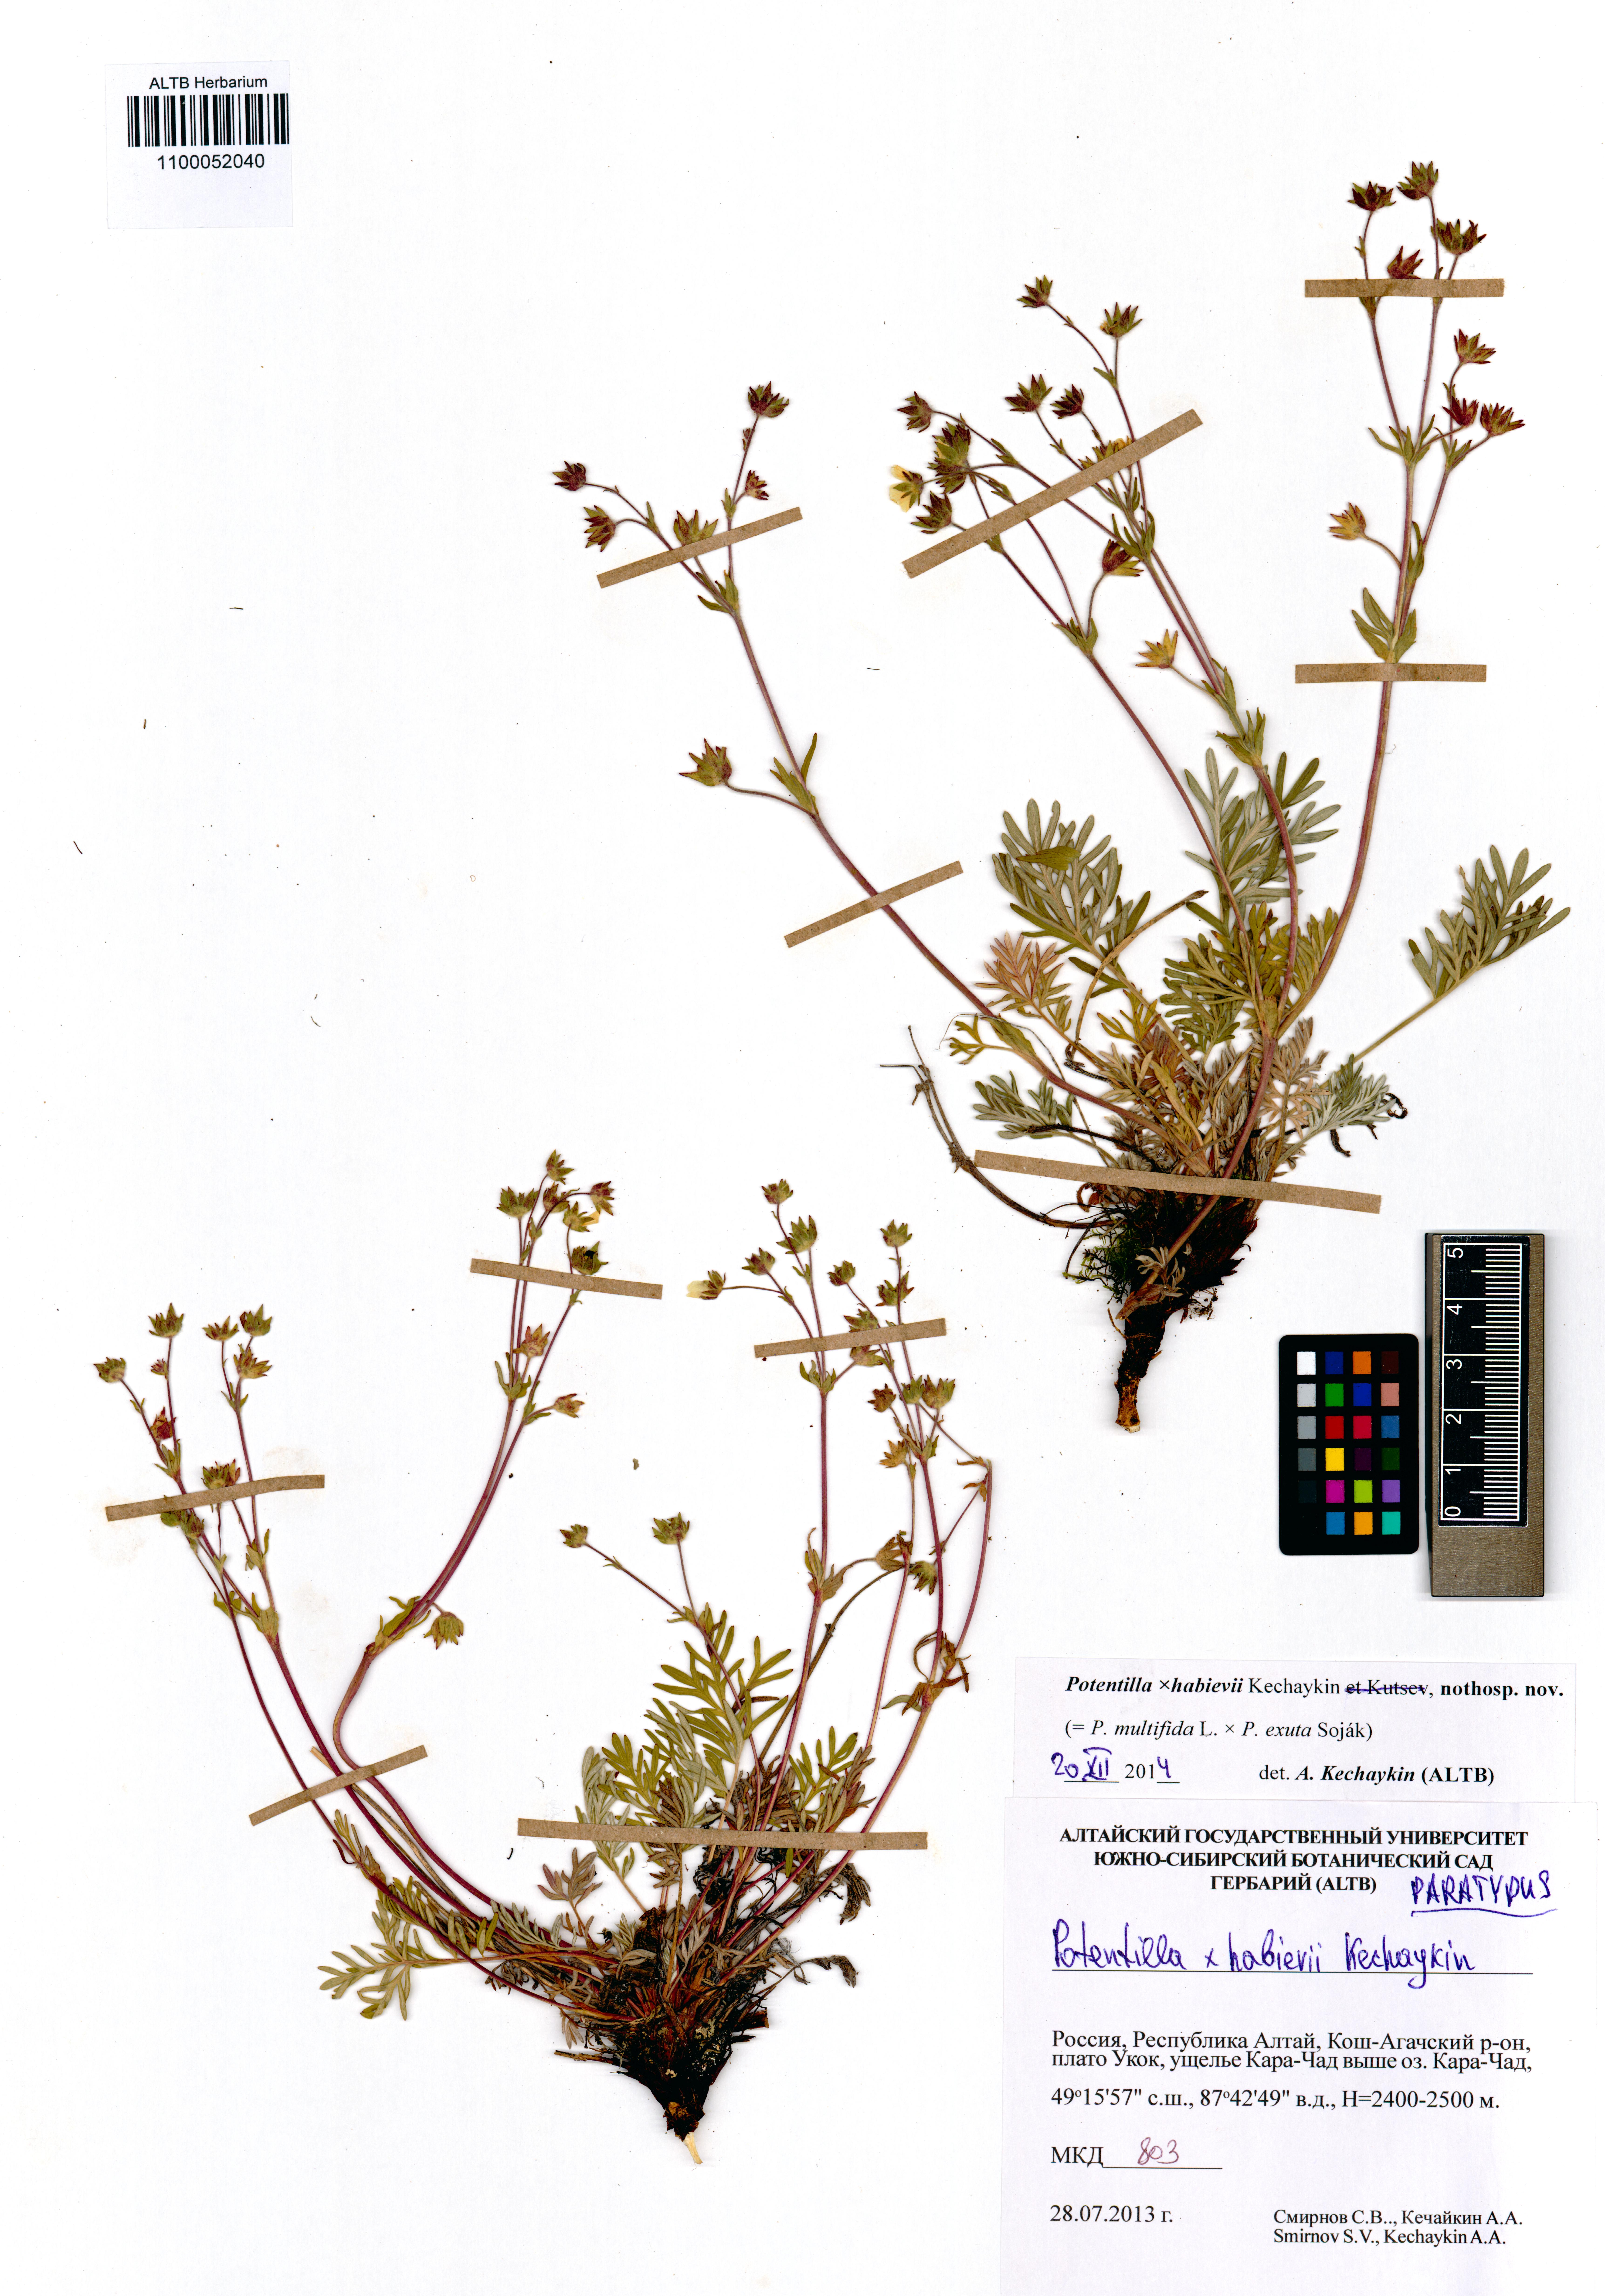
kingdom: Plantae
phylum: Tracheophyta
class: Magnoliopsida
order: Rosales
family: Rosaceae
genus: Potentilla
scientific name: Potentilla habievii
